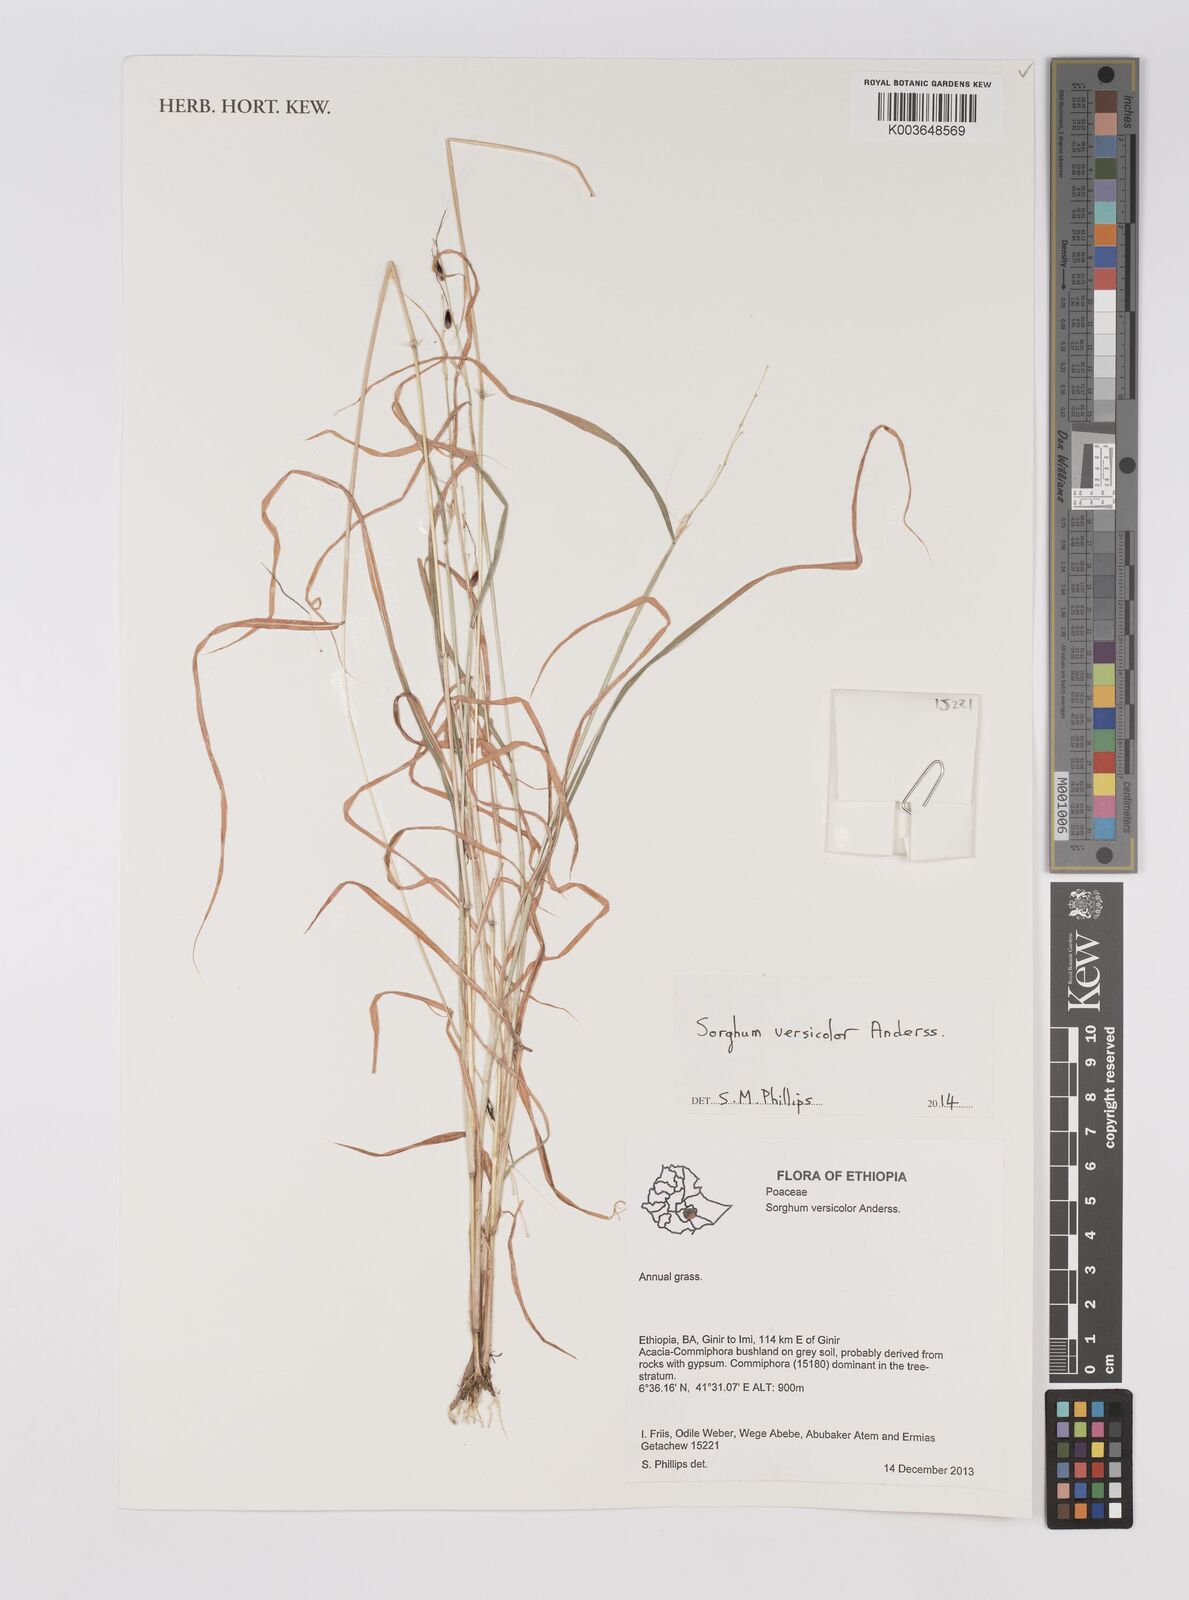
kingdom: Plantae
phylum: Tracheophyta
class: Liliopsida
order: Poales
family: Poaceae
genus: Sarga
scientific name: Sarga versicolor
